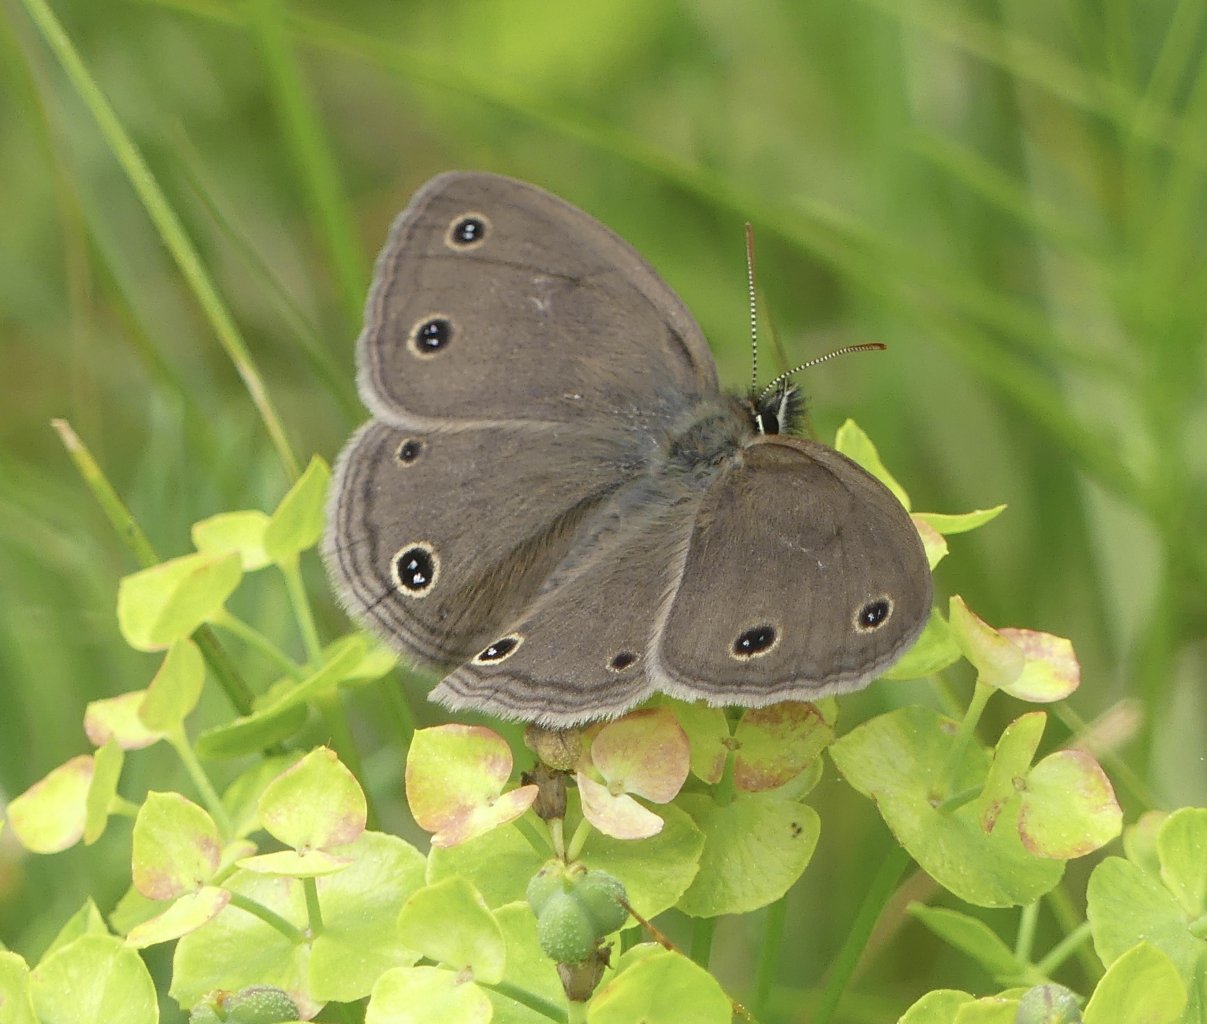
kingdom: Animalia
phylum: Arthropoda
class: Insecta
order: Lepidoptera
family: Nymphalidae
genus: Euptychia
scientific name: Euptychia cymela
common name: Little Wood Satyr
